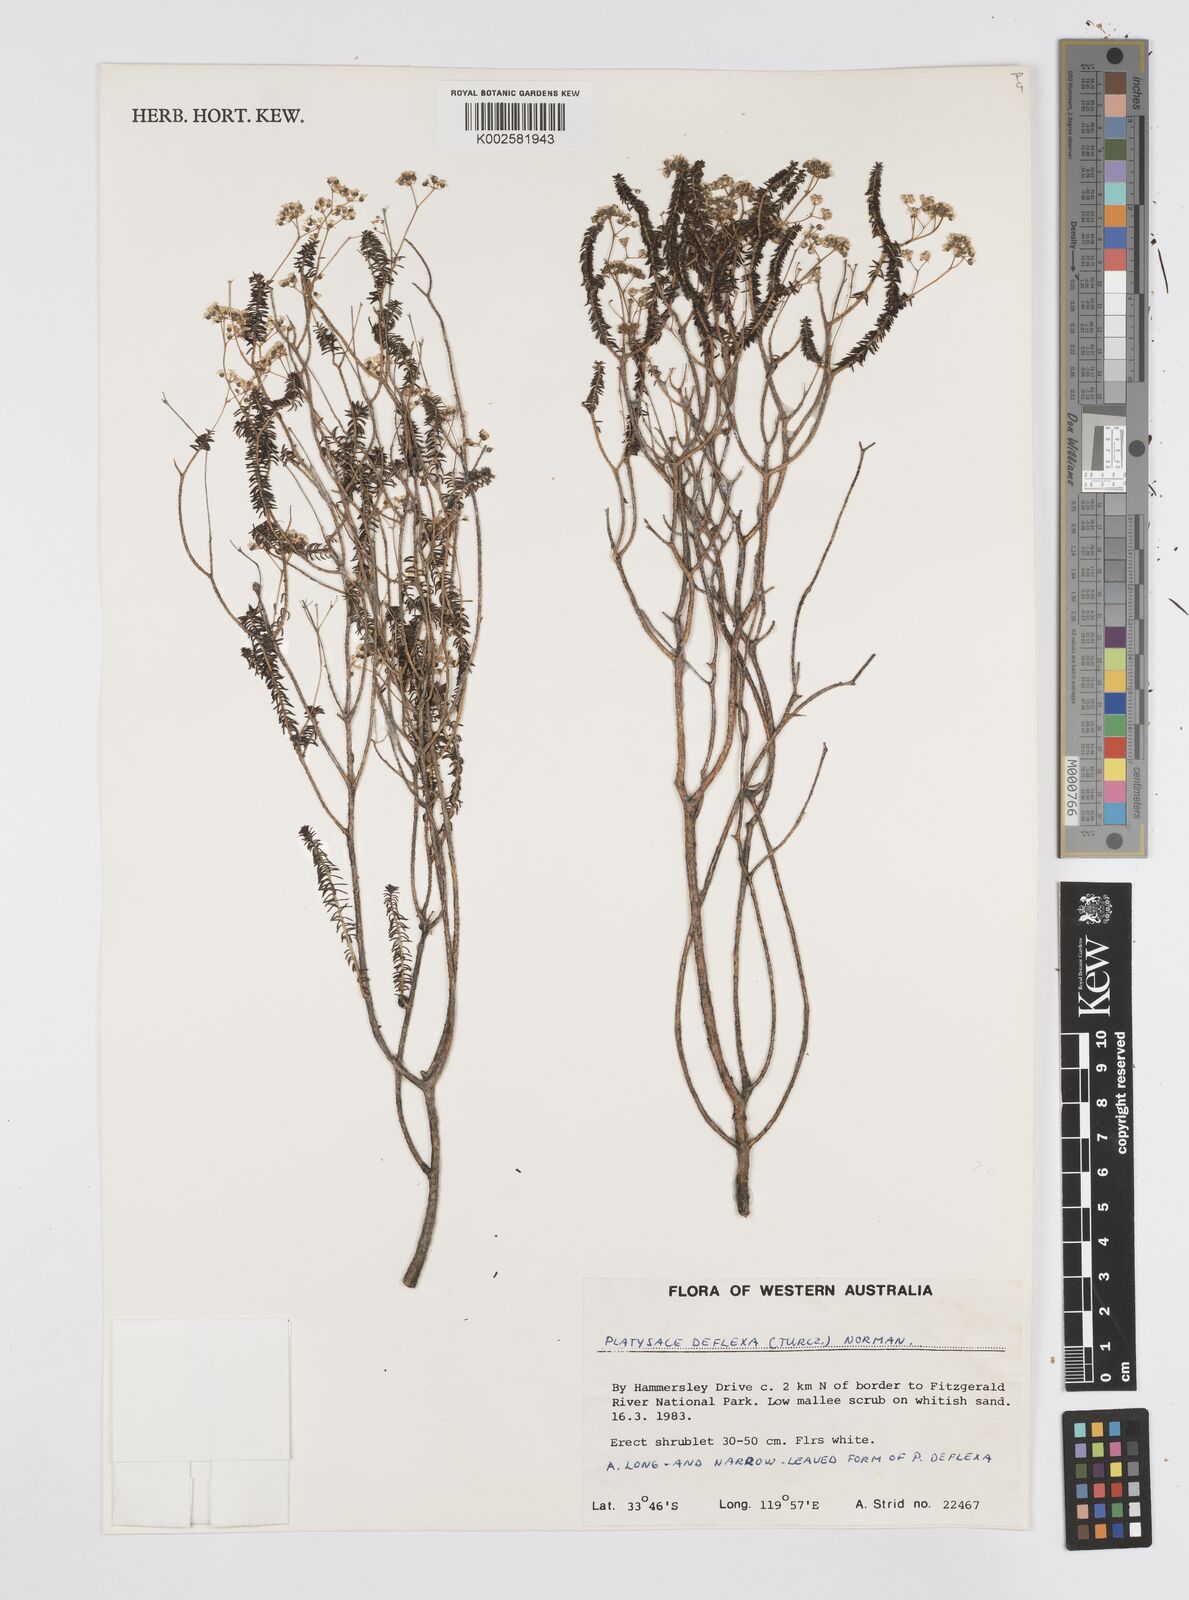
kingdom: Plantae
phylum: Tracheophyta
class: Magnoliopsida
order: Apiales
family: Apiaceae
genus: Platysace
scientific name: Platysace deflexa
